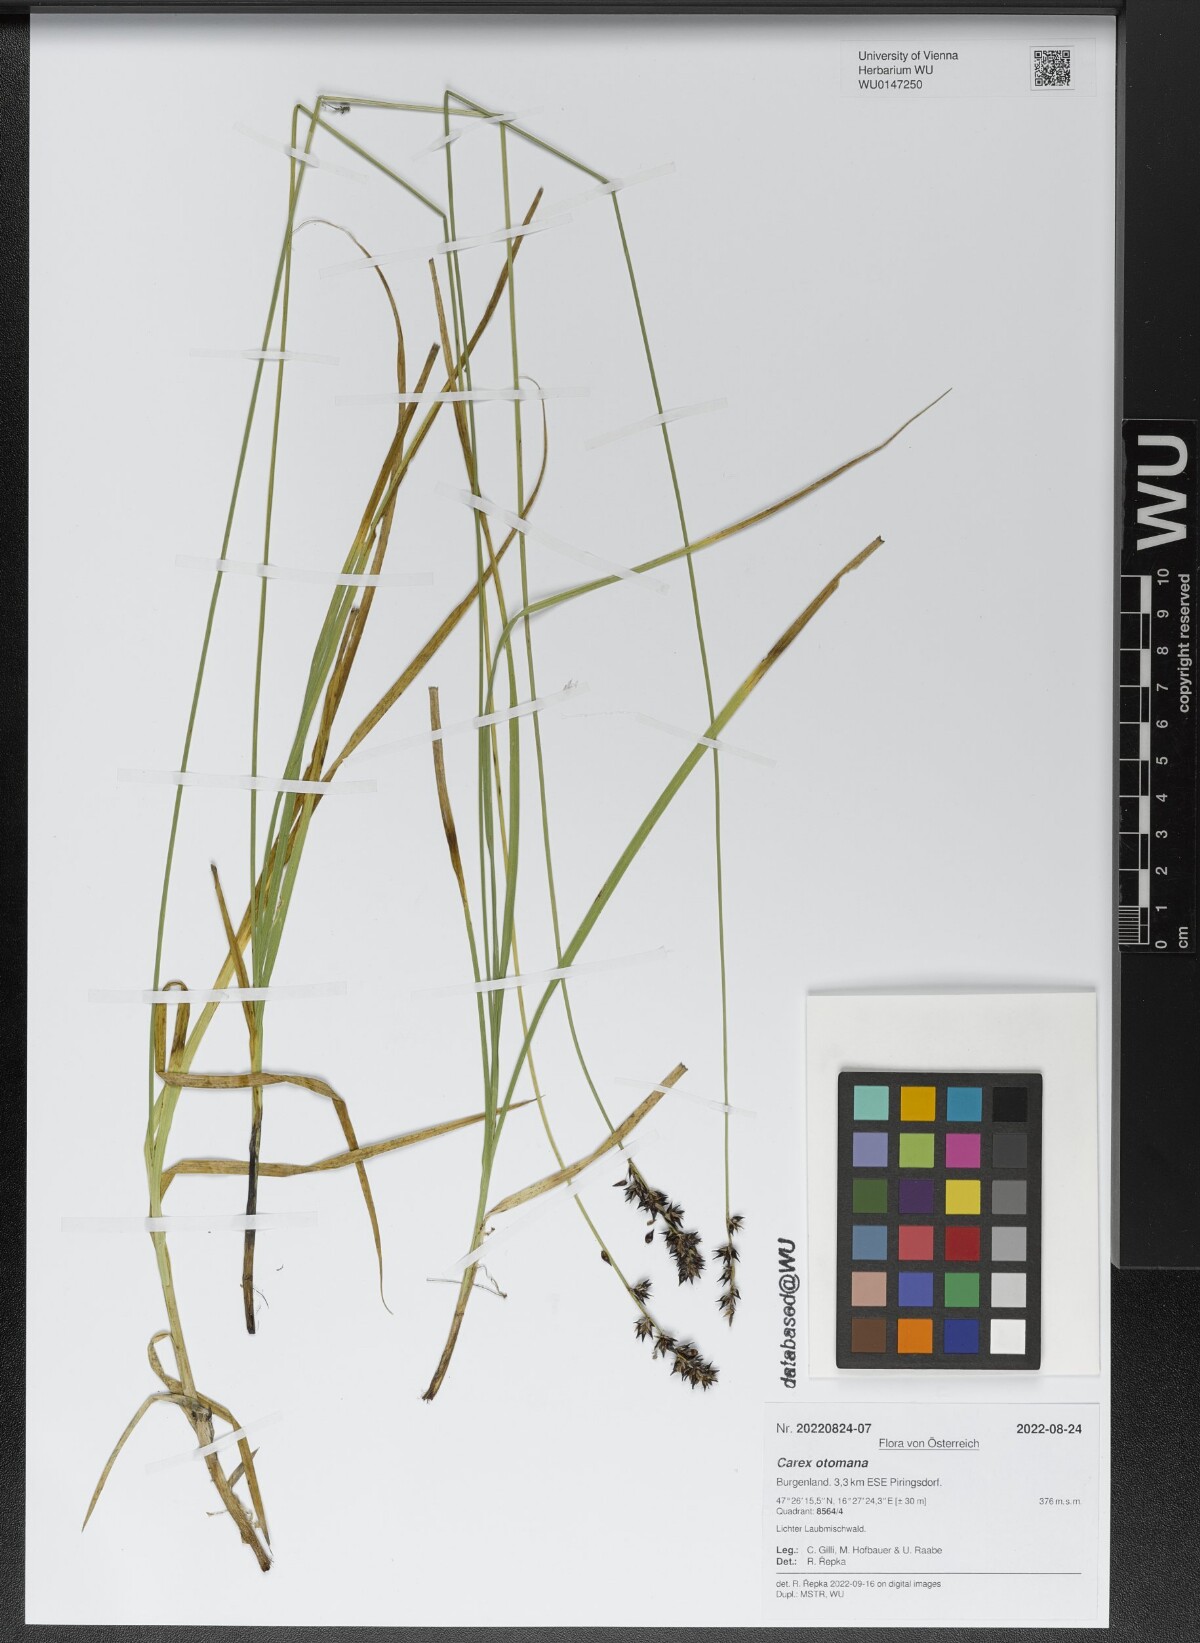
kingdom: Plantae
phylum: Tracheophyta
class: Liliopsida
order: Poales
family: Cyperaceae
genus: Carex
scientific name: Carex otomana
